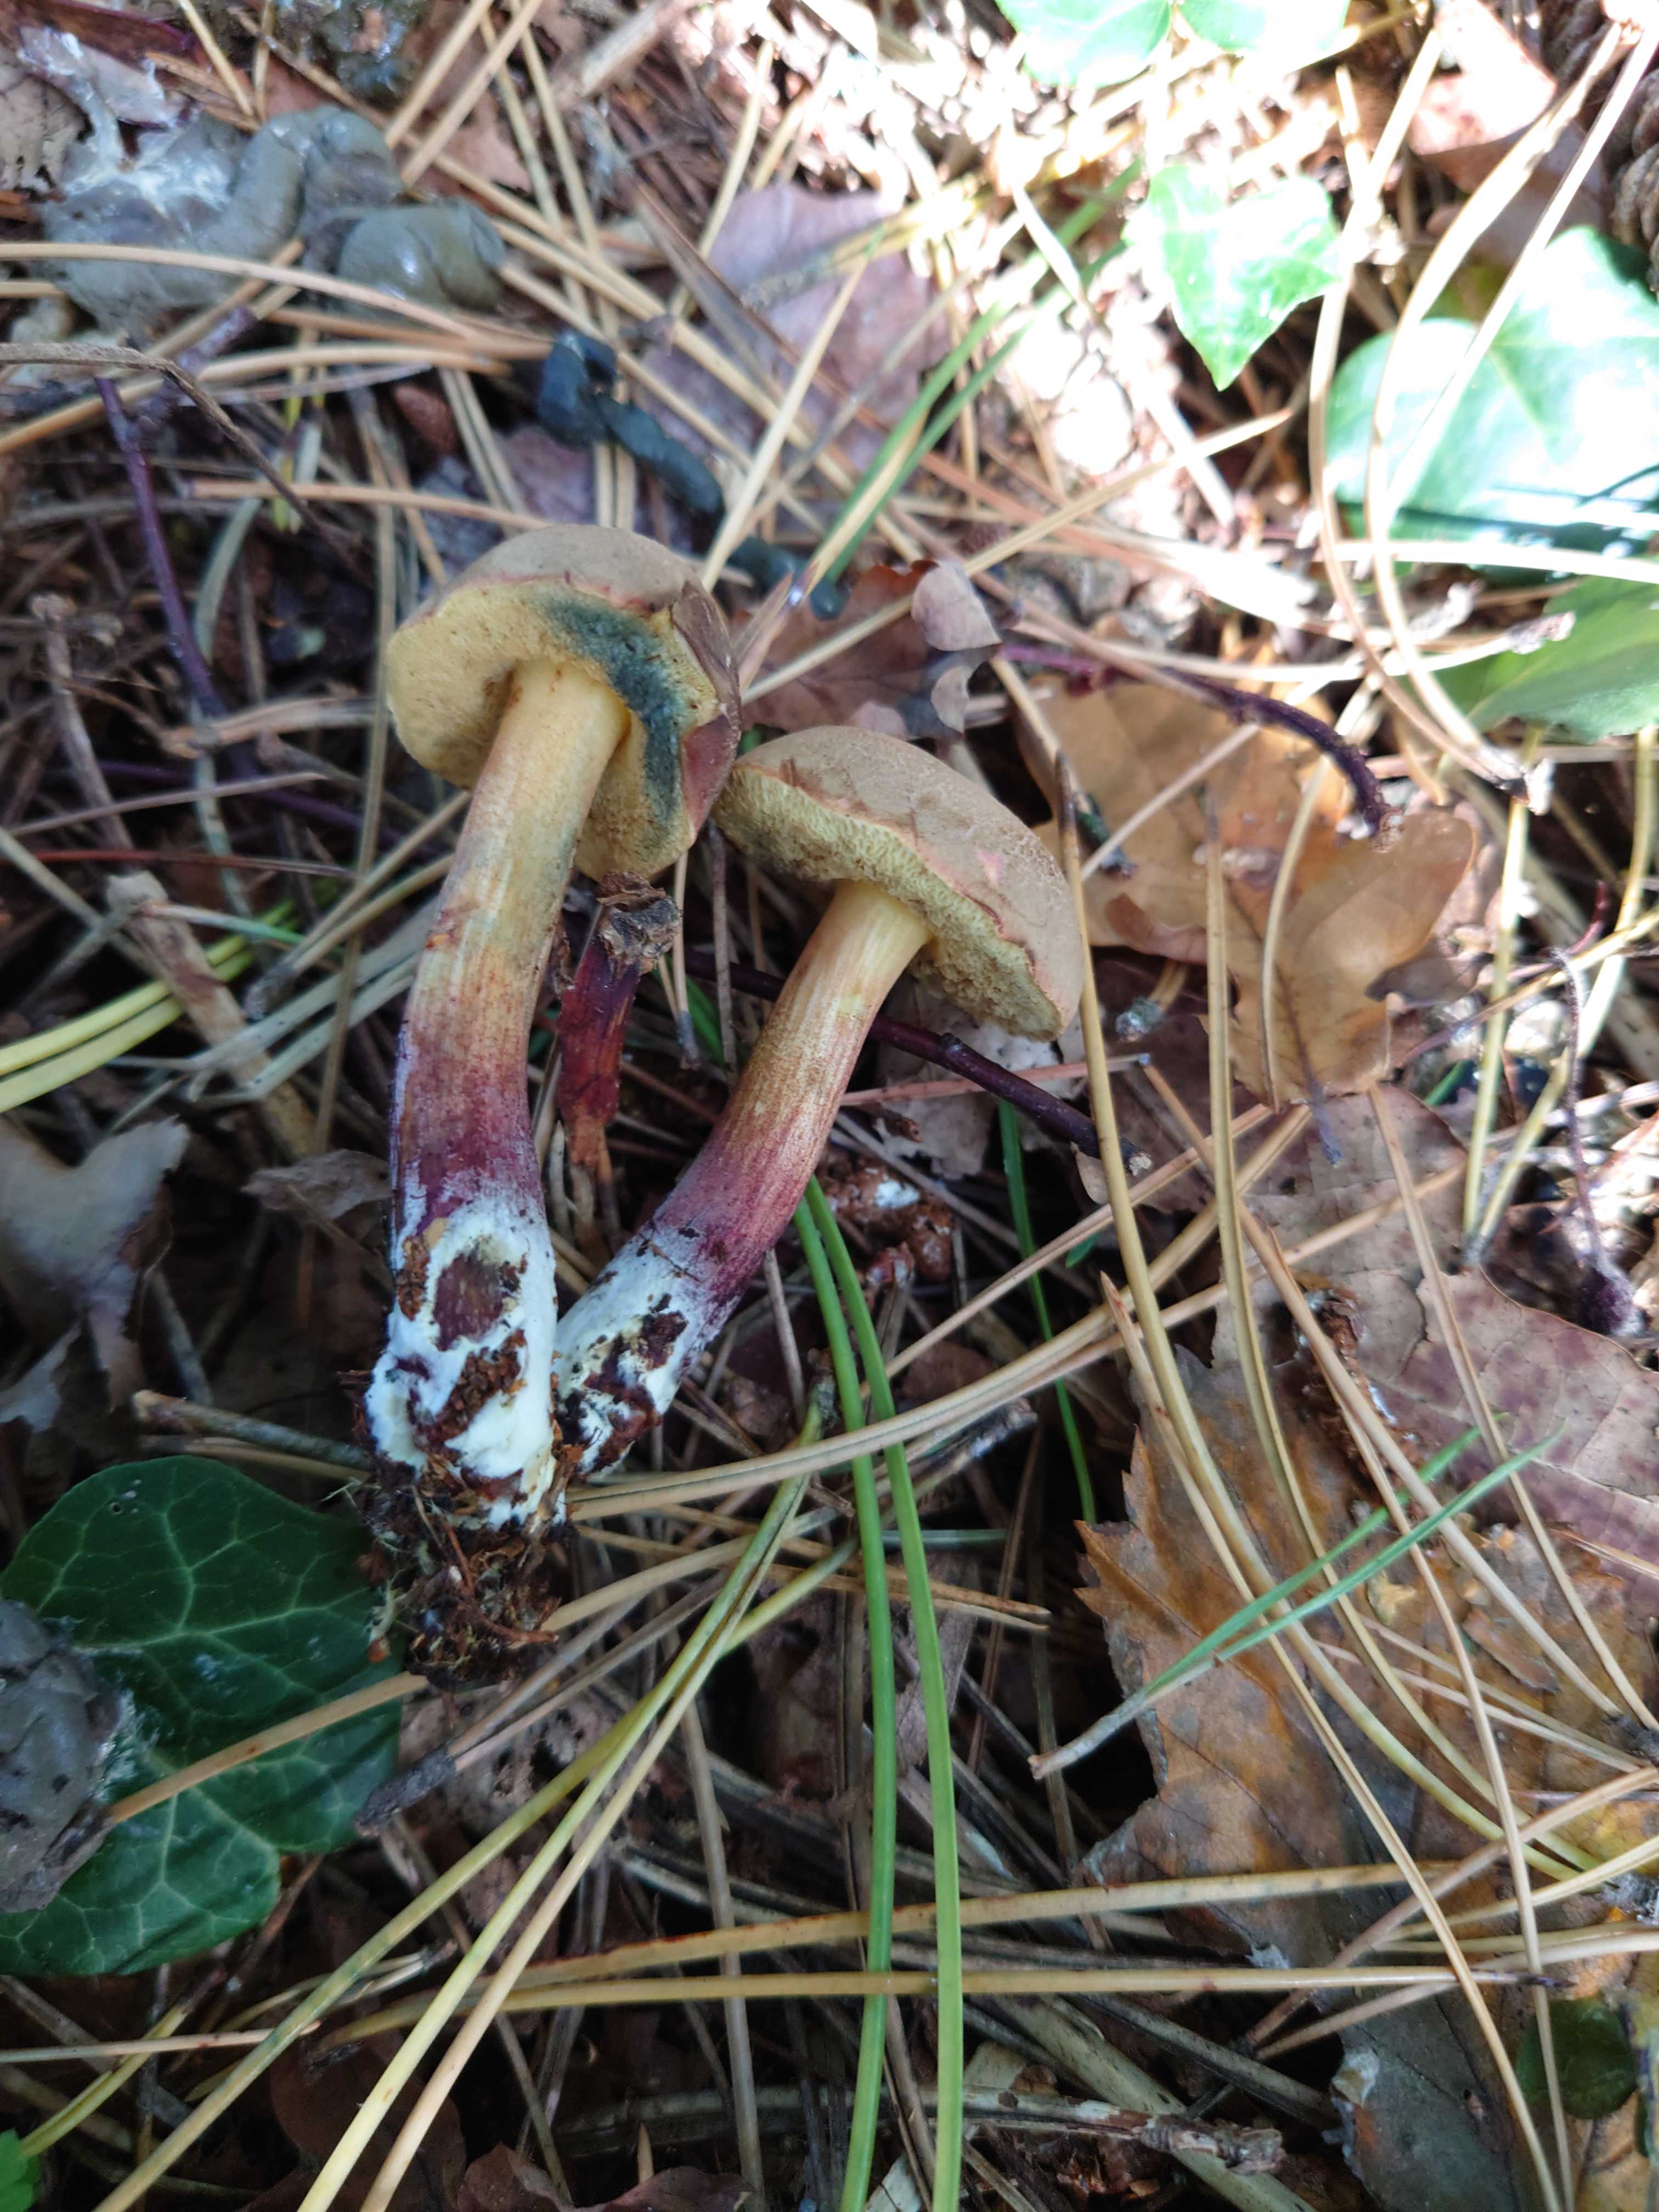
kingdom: Fungi
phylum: Basidiomycota
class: Agaricomycetes
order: Boletales
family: Boletaceae
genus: Xerocomellus
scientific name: Xerocomellus chrysenteron
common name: rødsprukken rørhat
